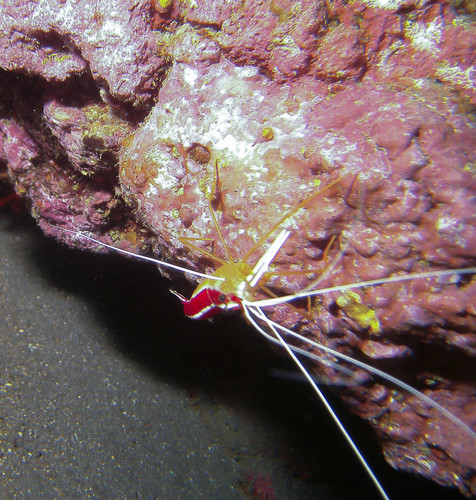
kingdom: Animalia
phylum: Arthropoda
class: Malacostraca
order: Decapoda
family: Lysmatidae
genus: Lysmata
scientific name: Lysmata grabhami
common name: Scarlet-striped cleaning shrimp
